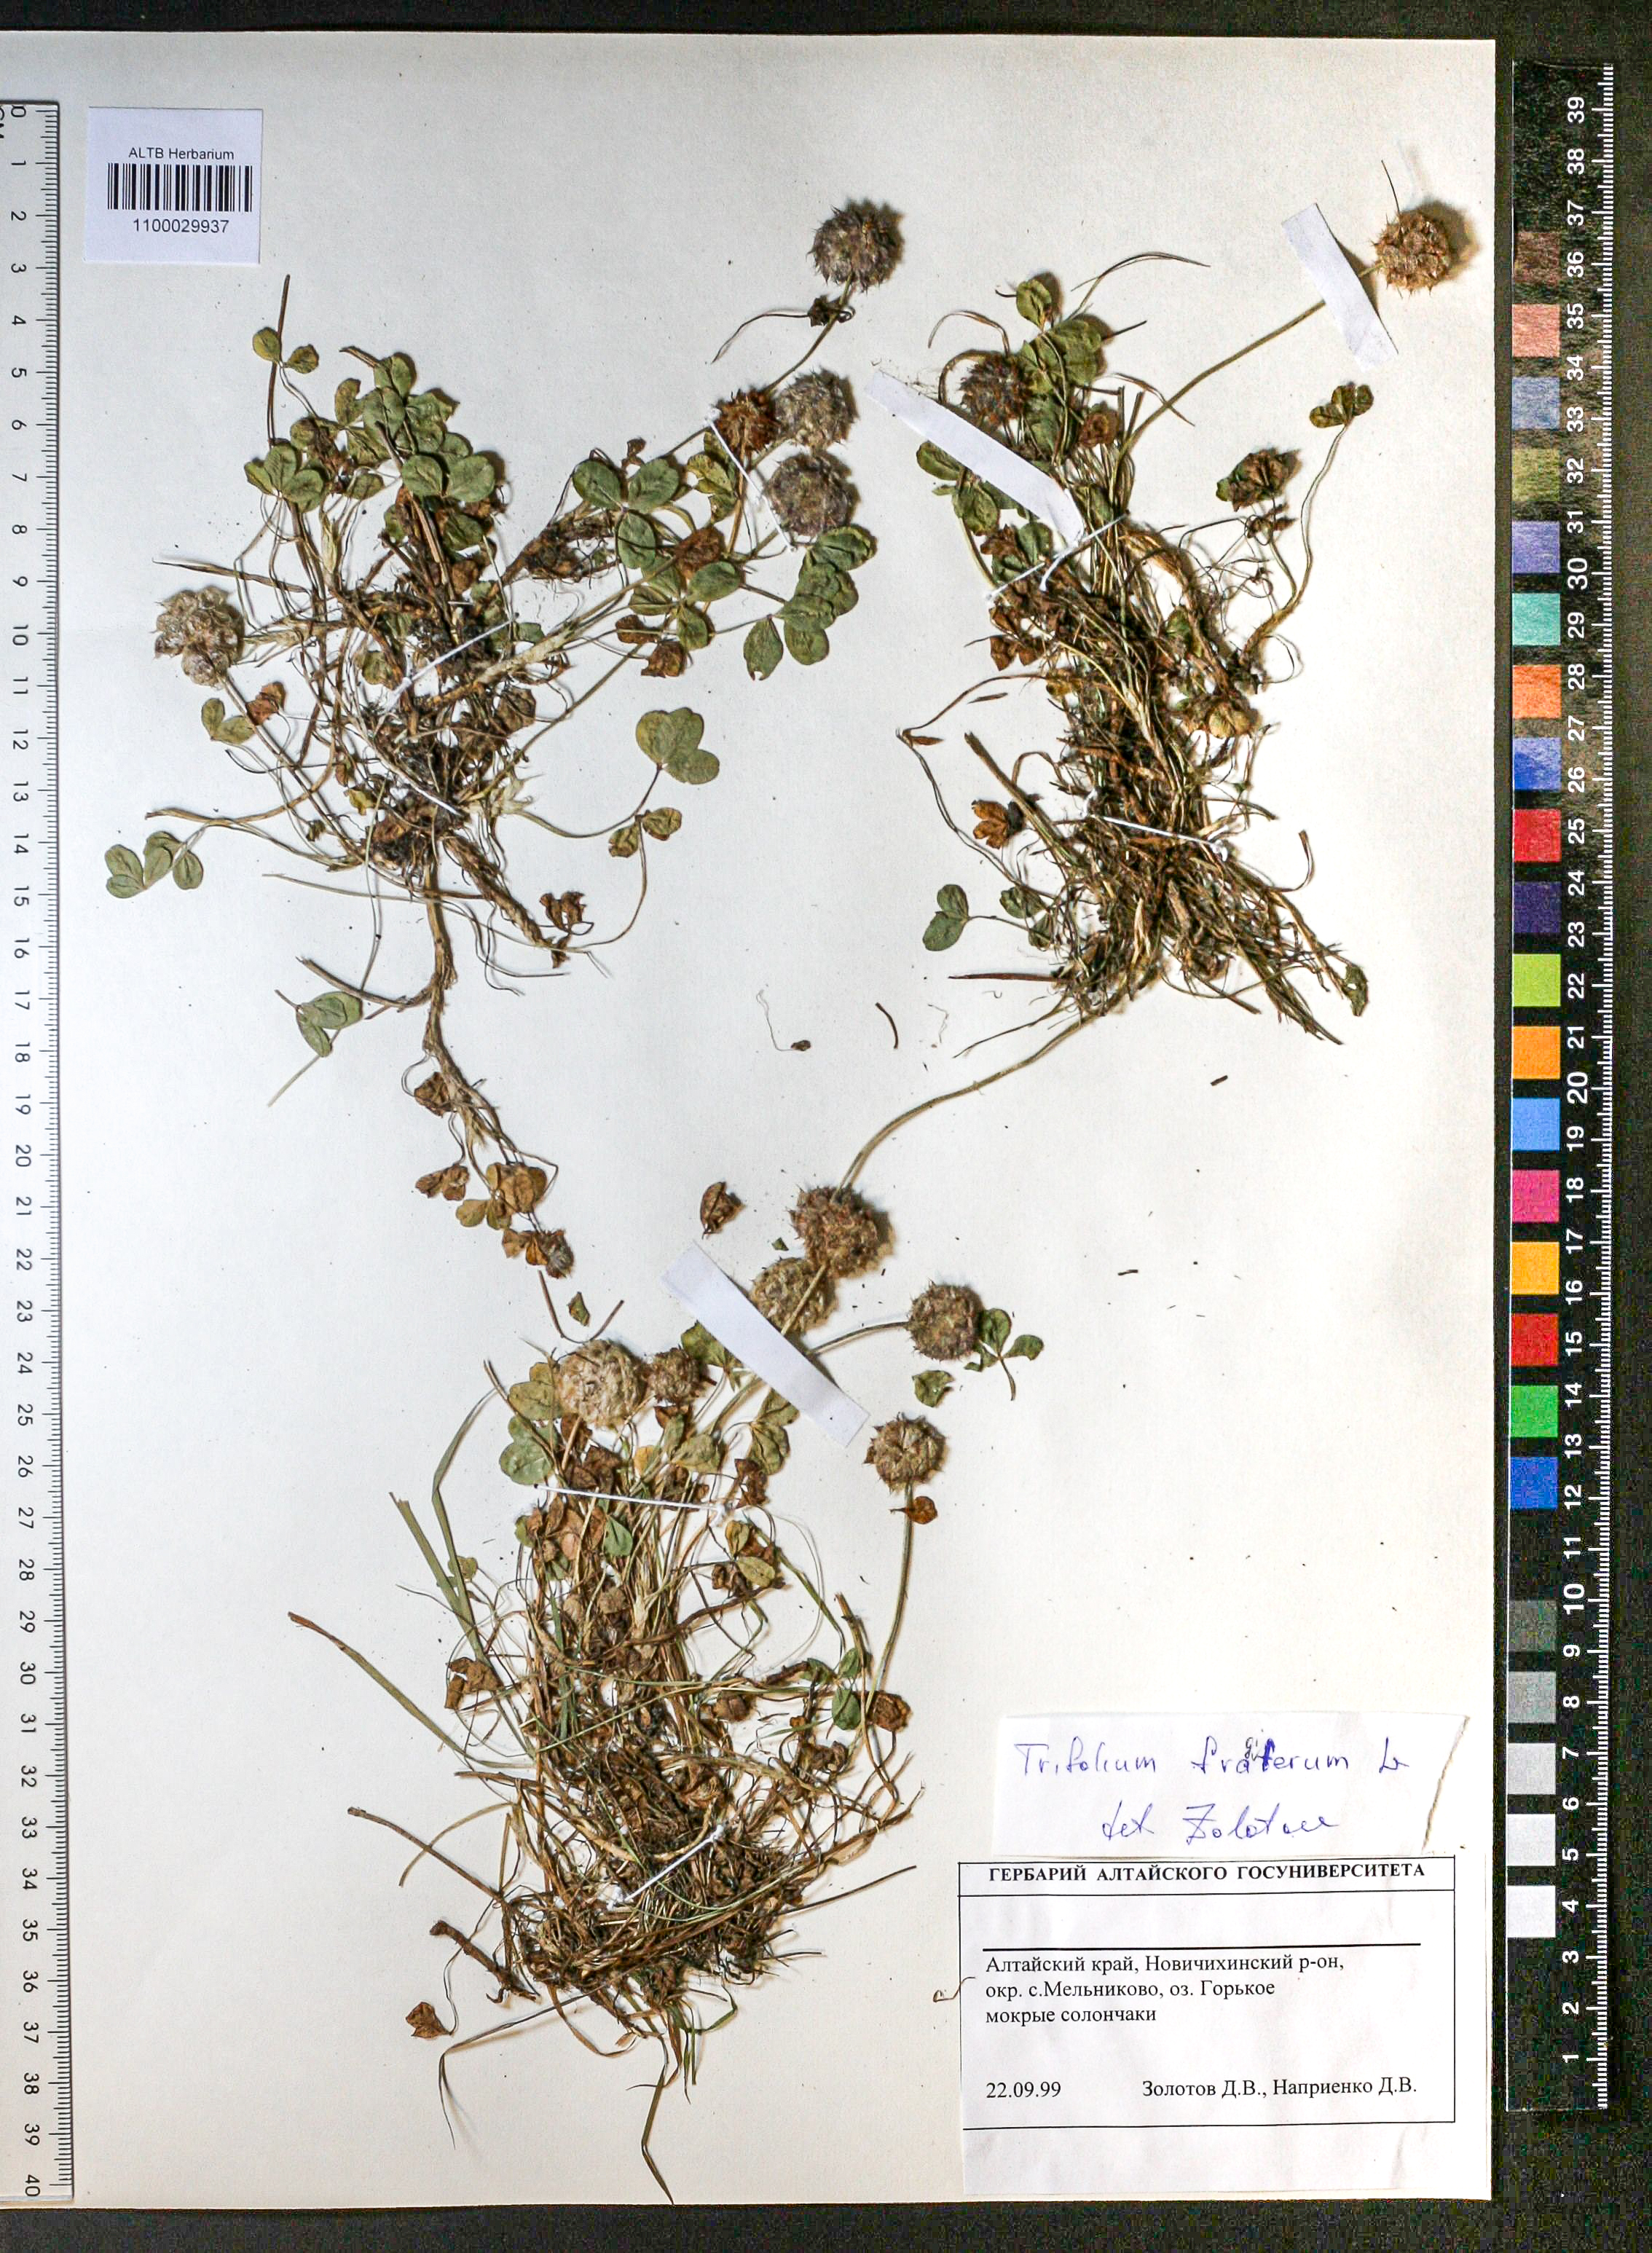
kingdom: Plantae
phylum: Tracheophyta
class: Magnoliopsida
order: Fabales
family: Fabaceae
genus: Trifolium
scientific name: Trifolium fragiferum
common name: Strawberry clover
